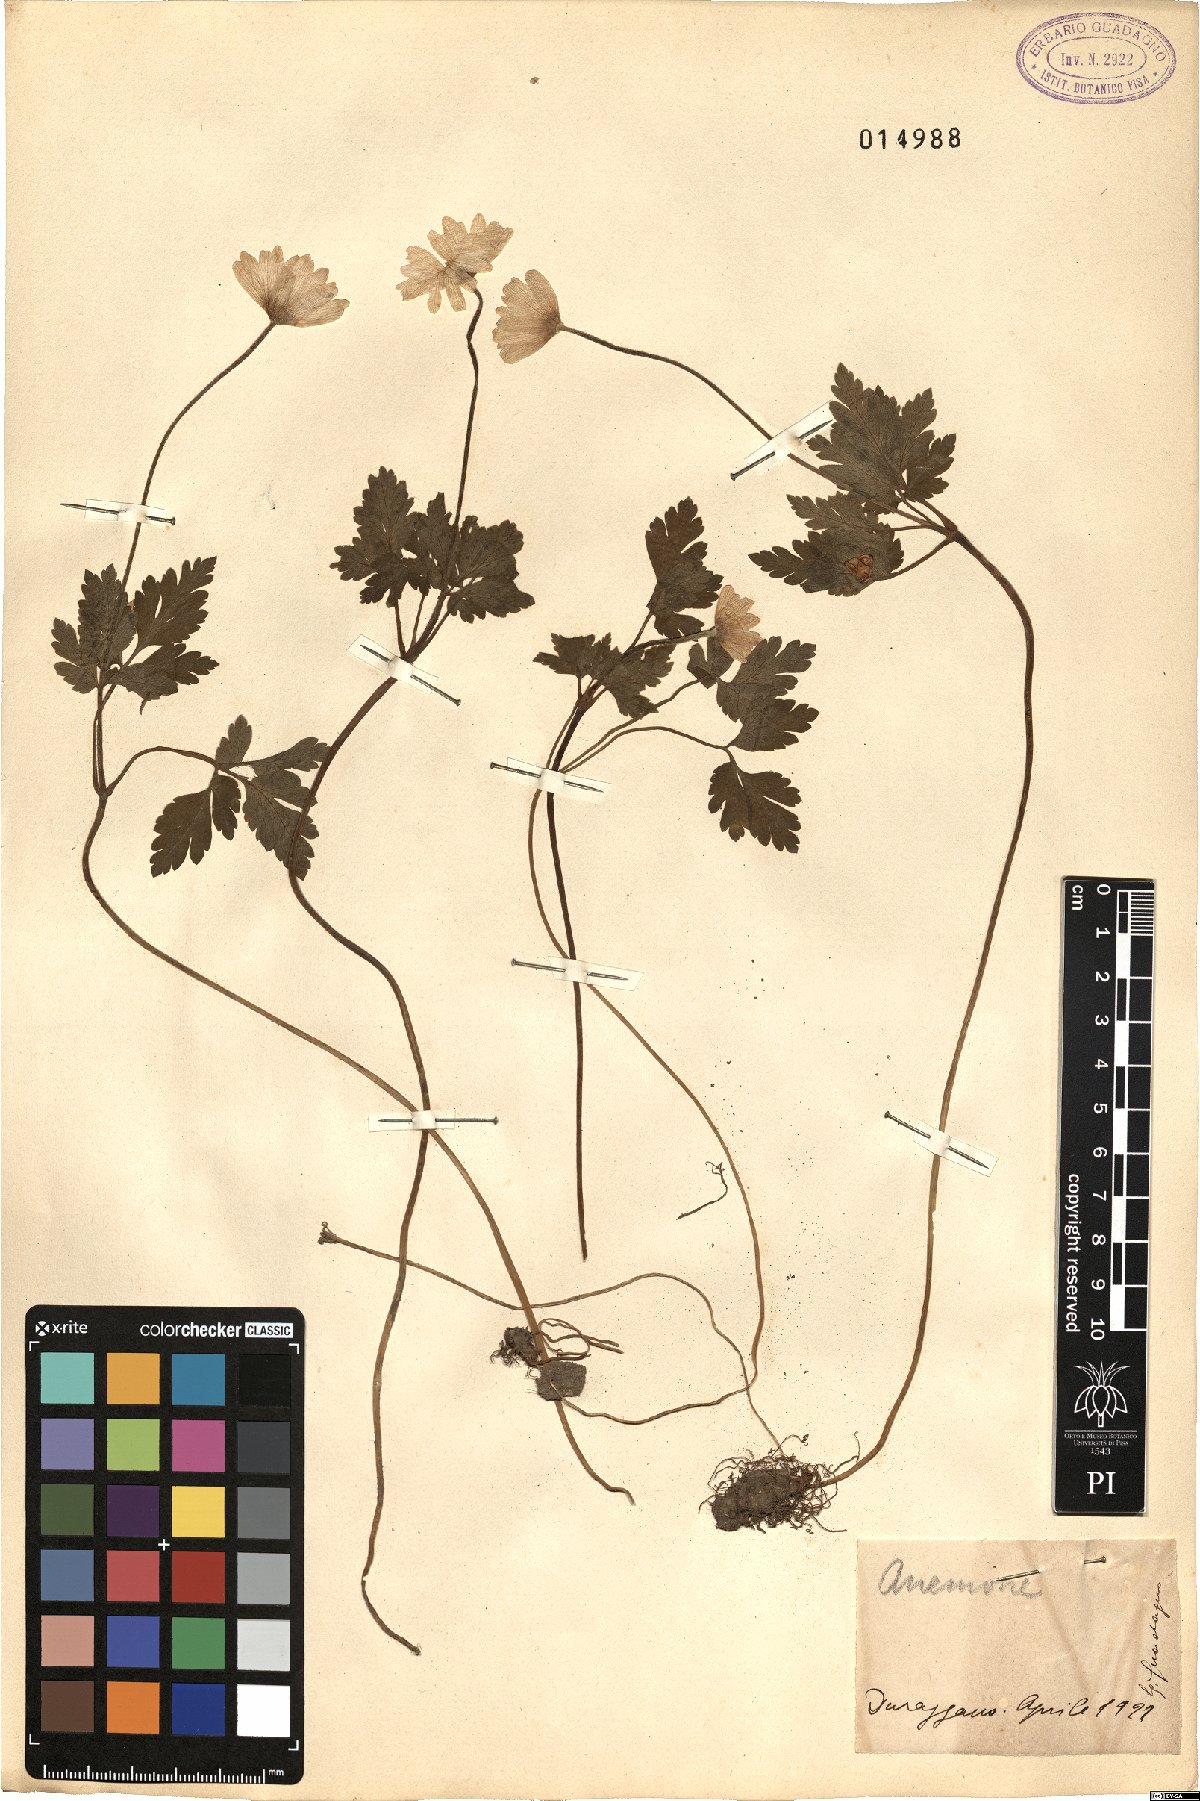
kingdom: Plantae
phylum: Tracheophyta
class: Magnoliopsida
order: Ranunculales
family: Ranunculaceae
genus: Anemone
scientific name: Anemone
